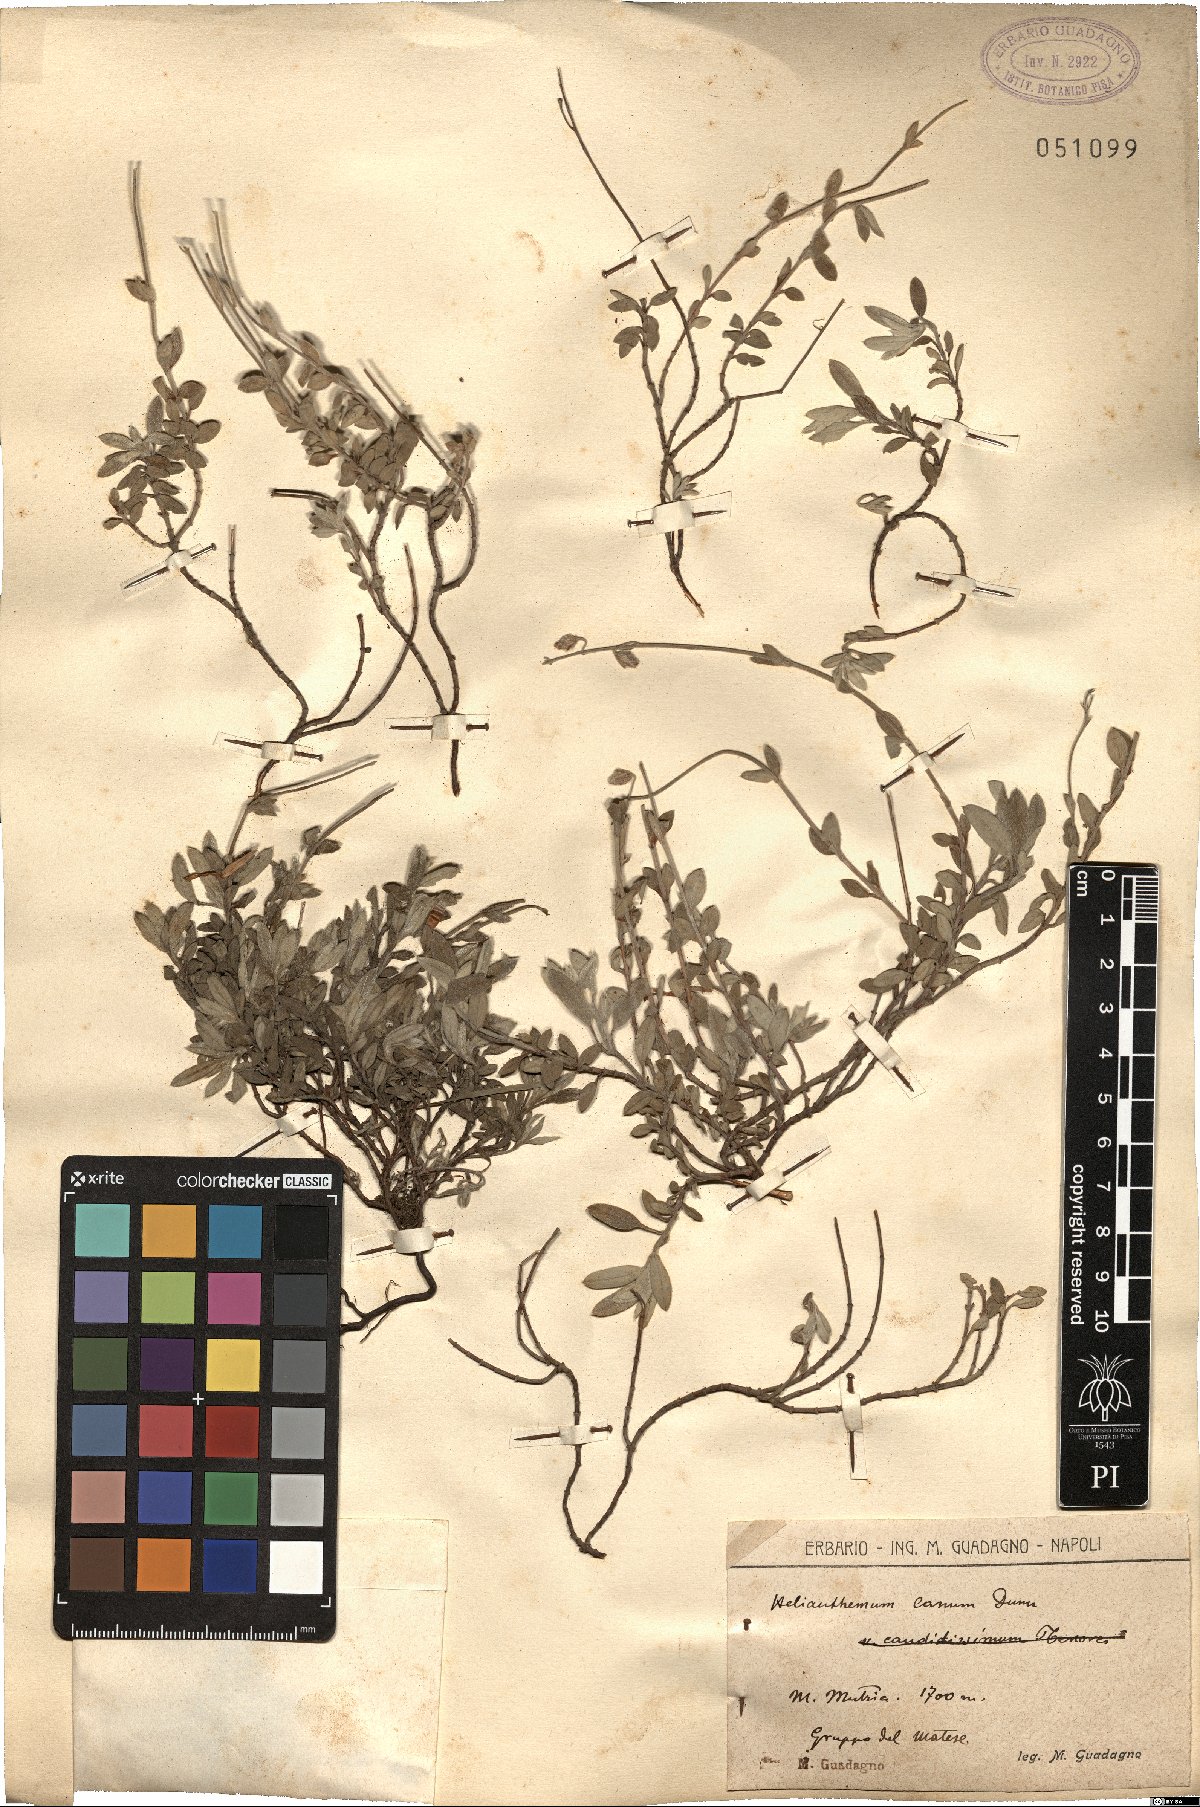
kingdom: Plantae
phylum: Tracheophyta
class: Magnoliopsida
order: Malvales
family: Cistaceae
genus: Helianthemum
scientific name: Helianthemum canum
